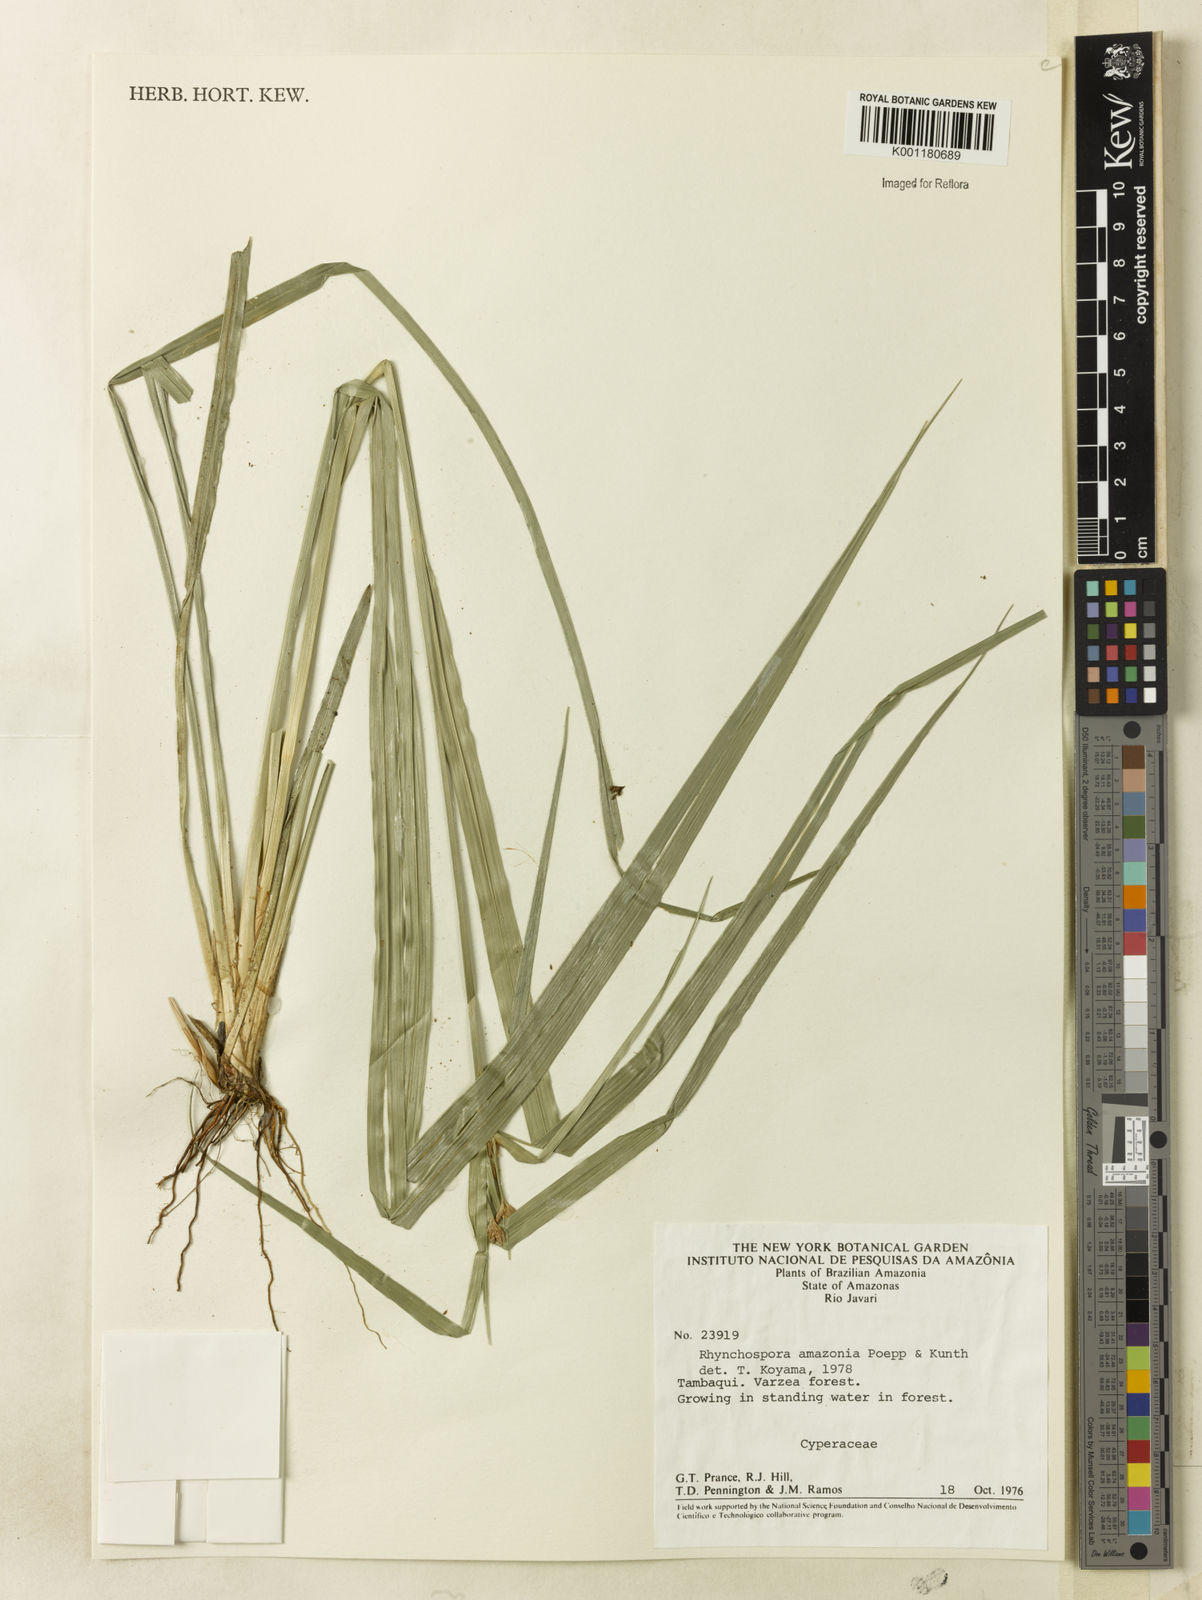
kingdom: Plantae
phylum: Tracheophyta
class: Liliopsida
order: Poales
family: Cyperaceae
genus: Rhynchospora
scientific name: Rhynchospora amazonica
